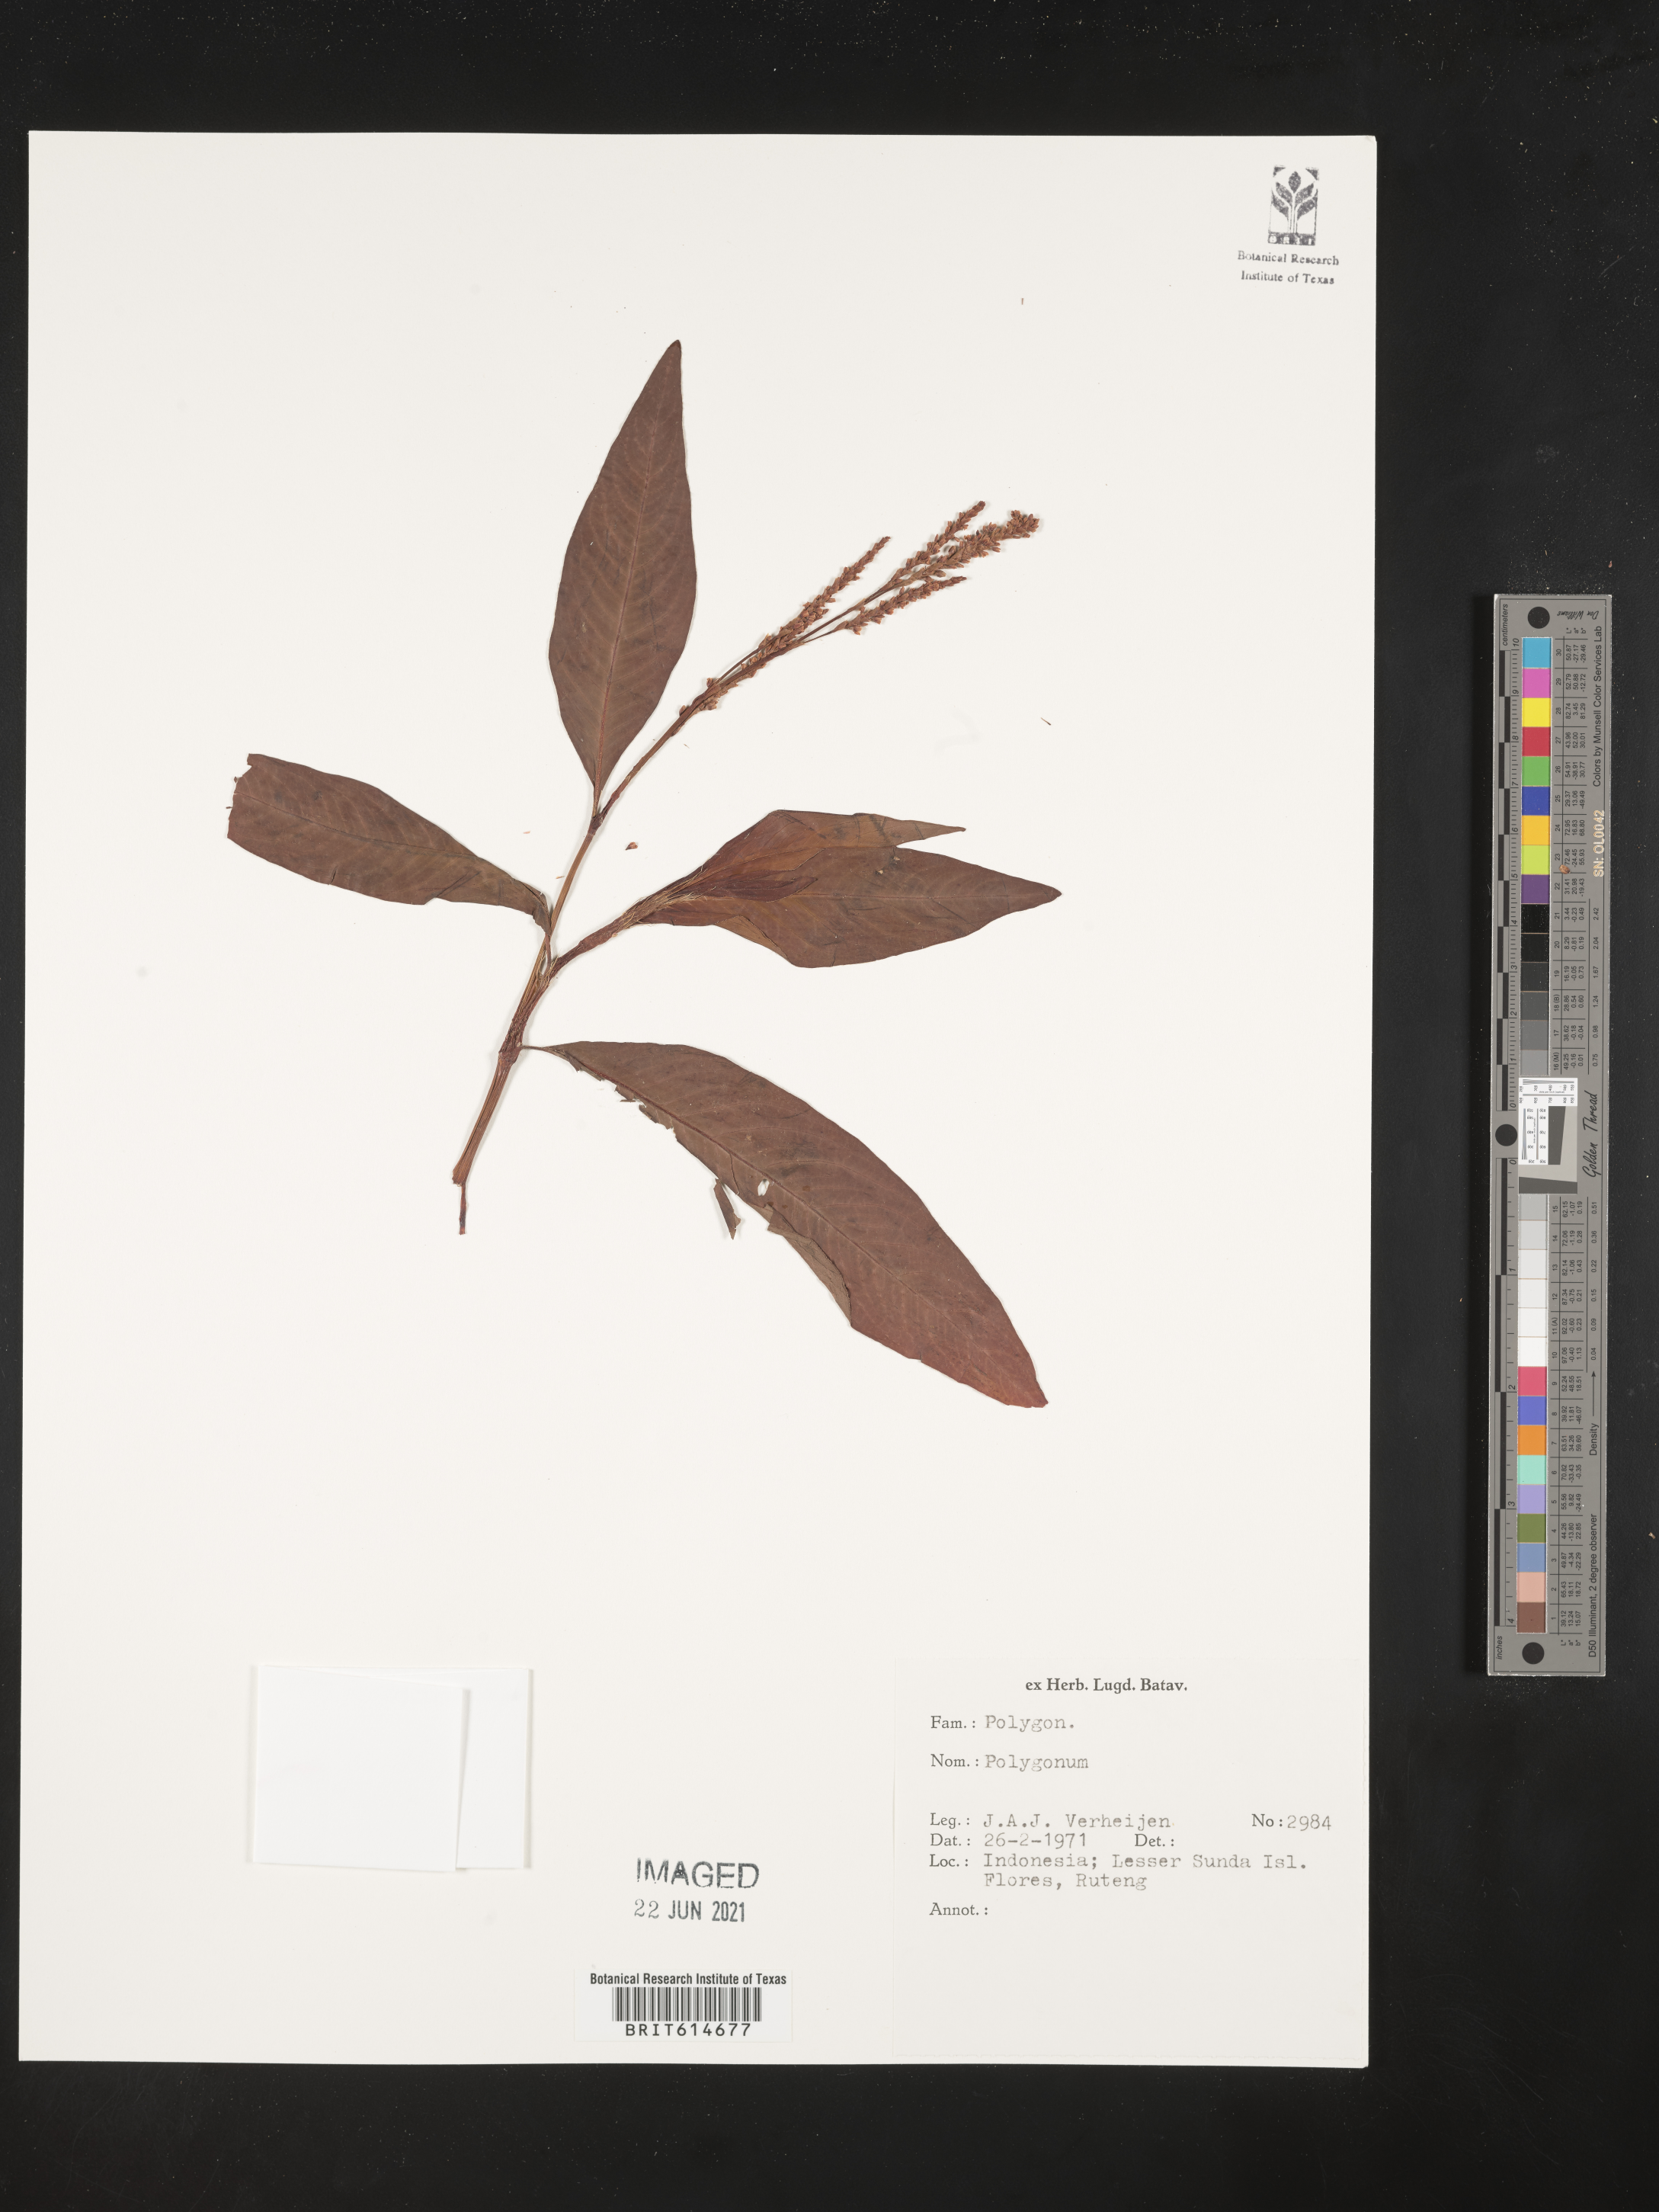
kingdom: Plantae
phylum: Tracheophyta
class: Magnoliopsida
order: Caryophyllales
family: Polygonaceae
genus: Polygonum
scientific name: Polygonum
